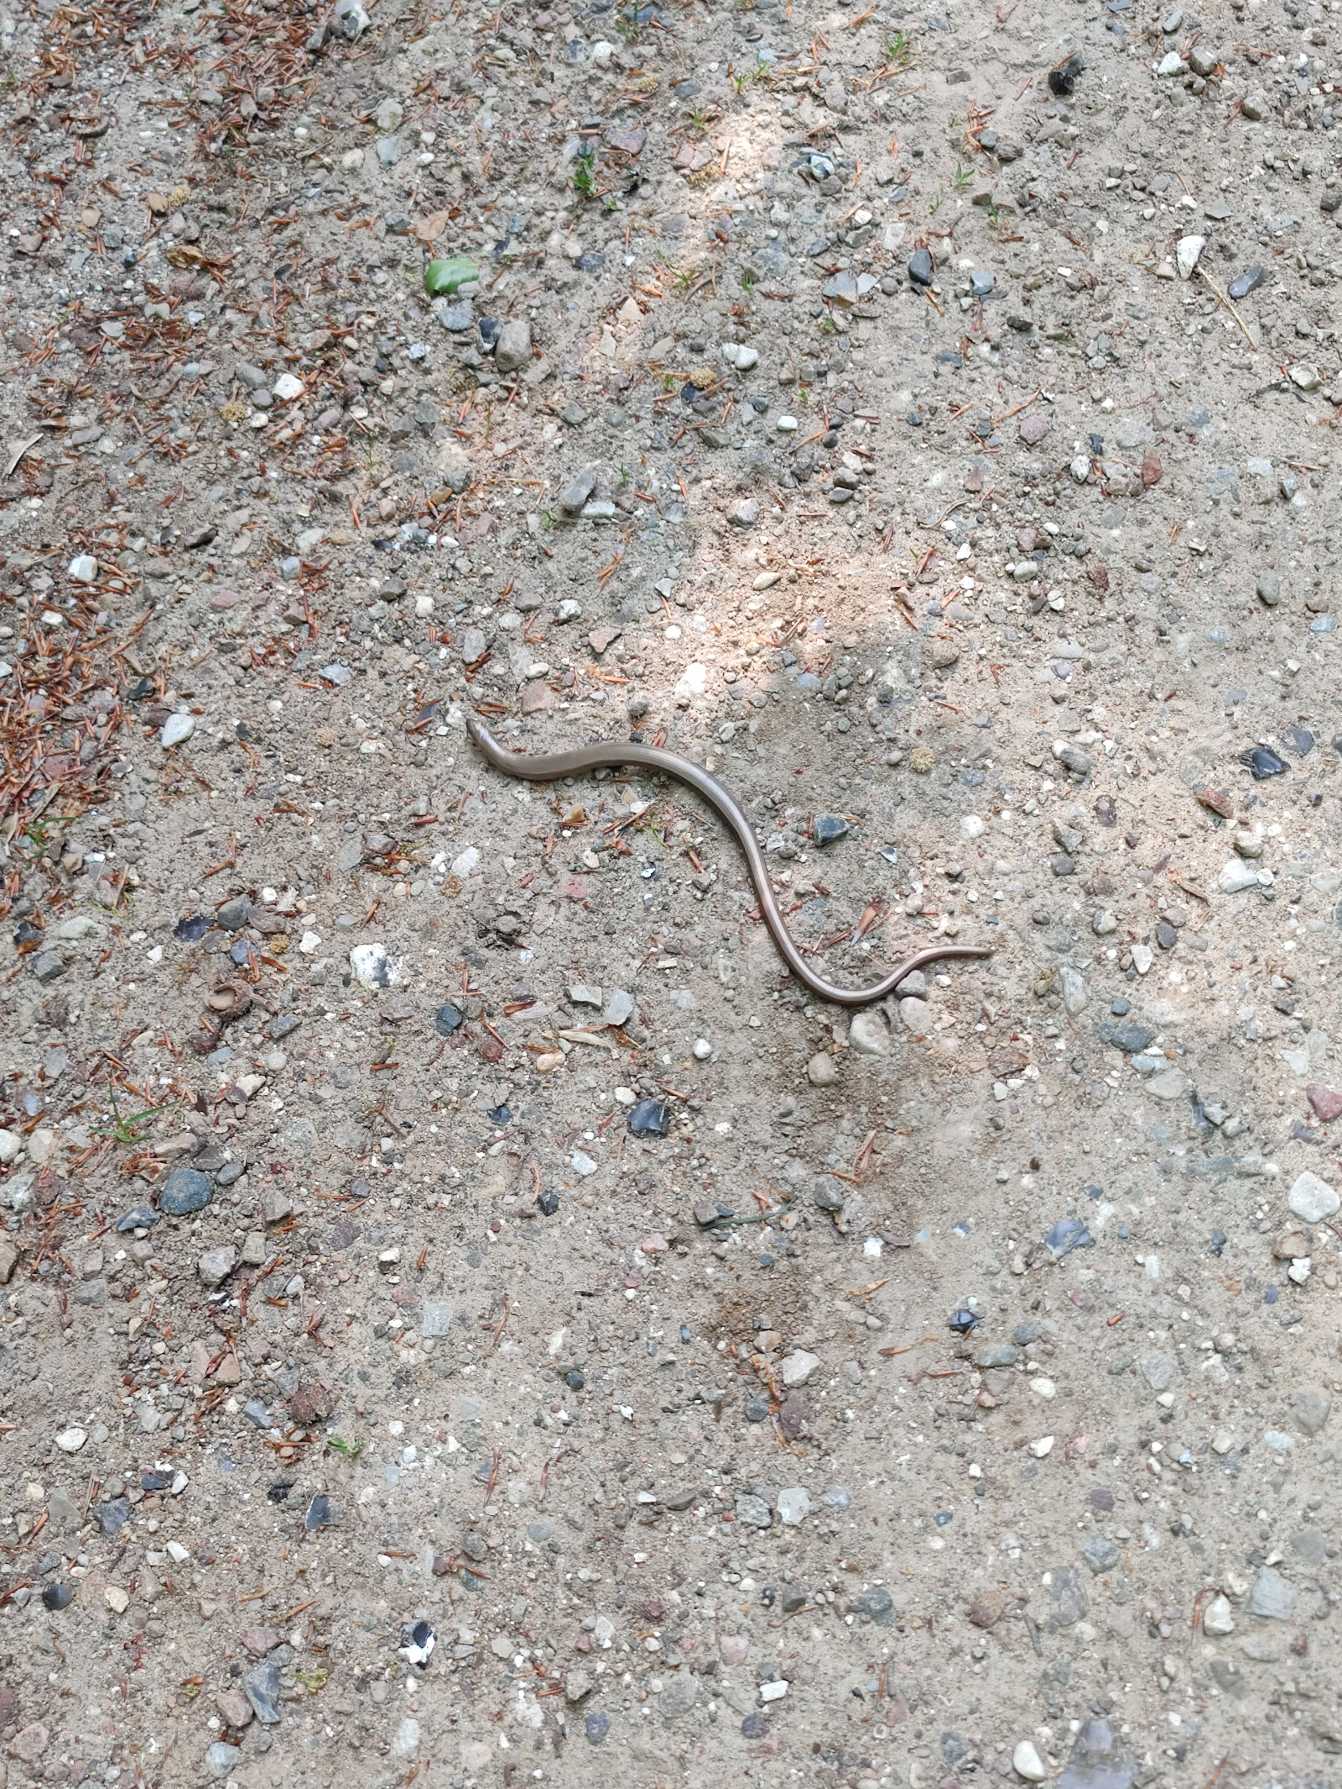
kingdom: Animalia
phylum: Chordata
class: Squamata
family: Anguidae
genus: Anguis
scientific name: Anguis fragilis
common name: Stålorm
